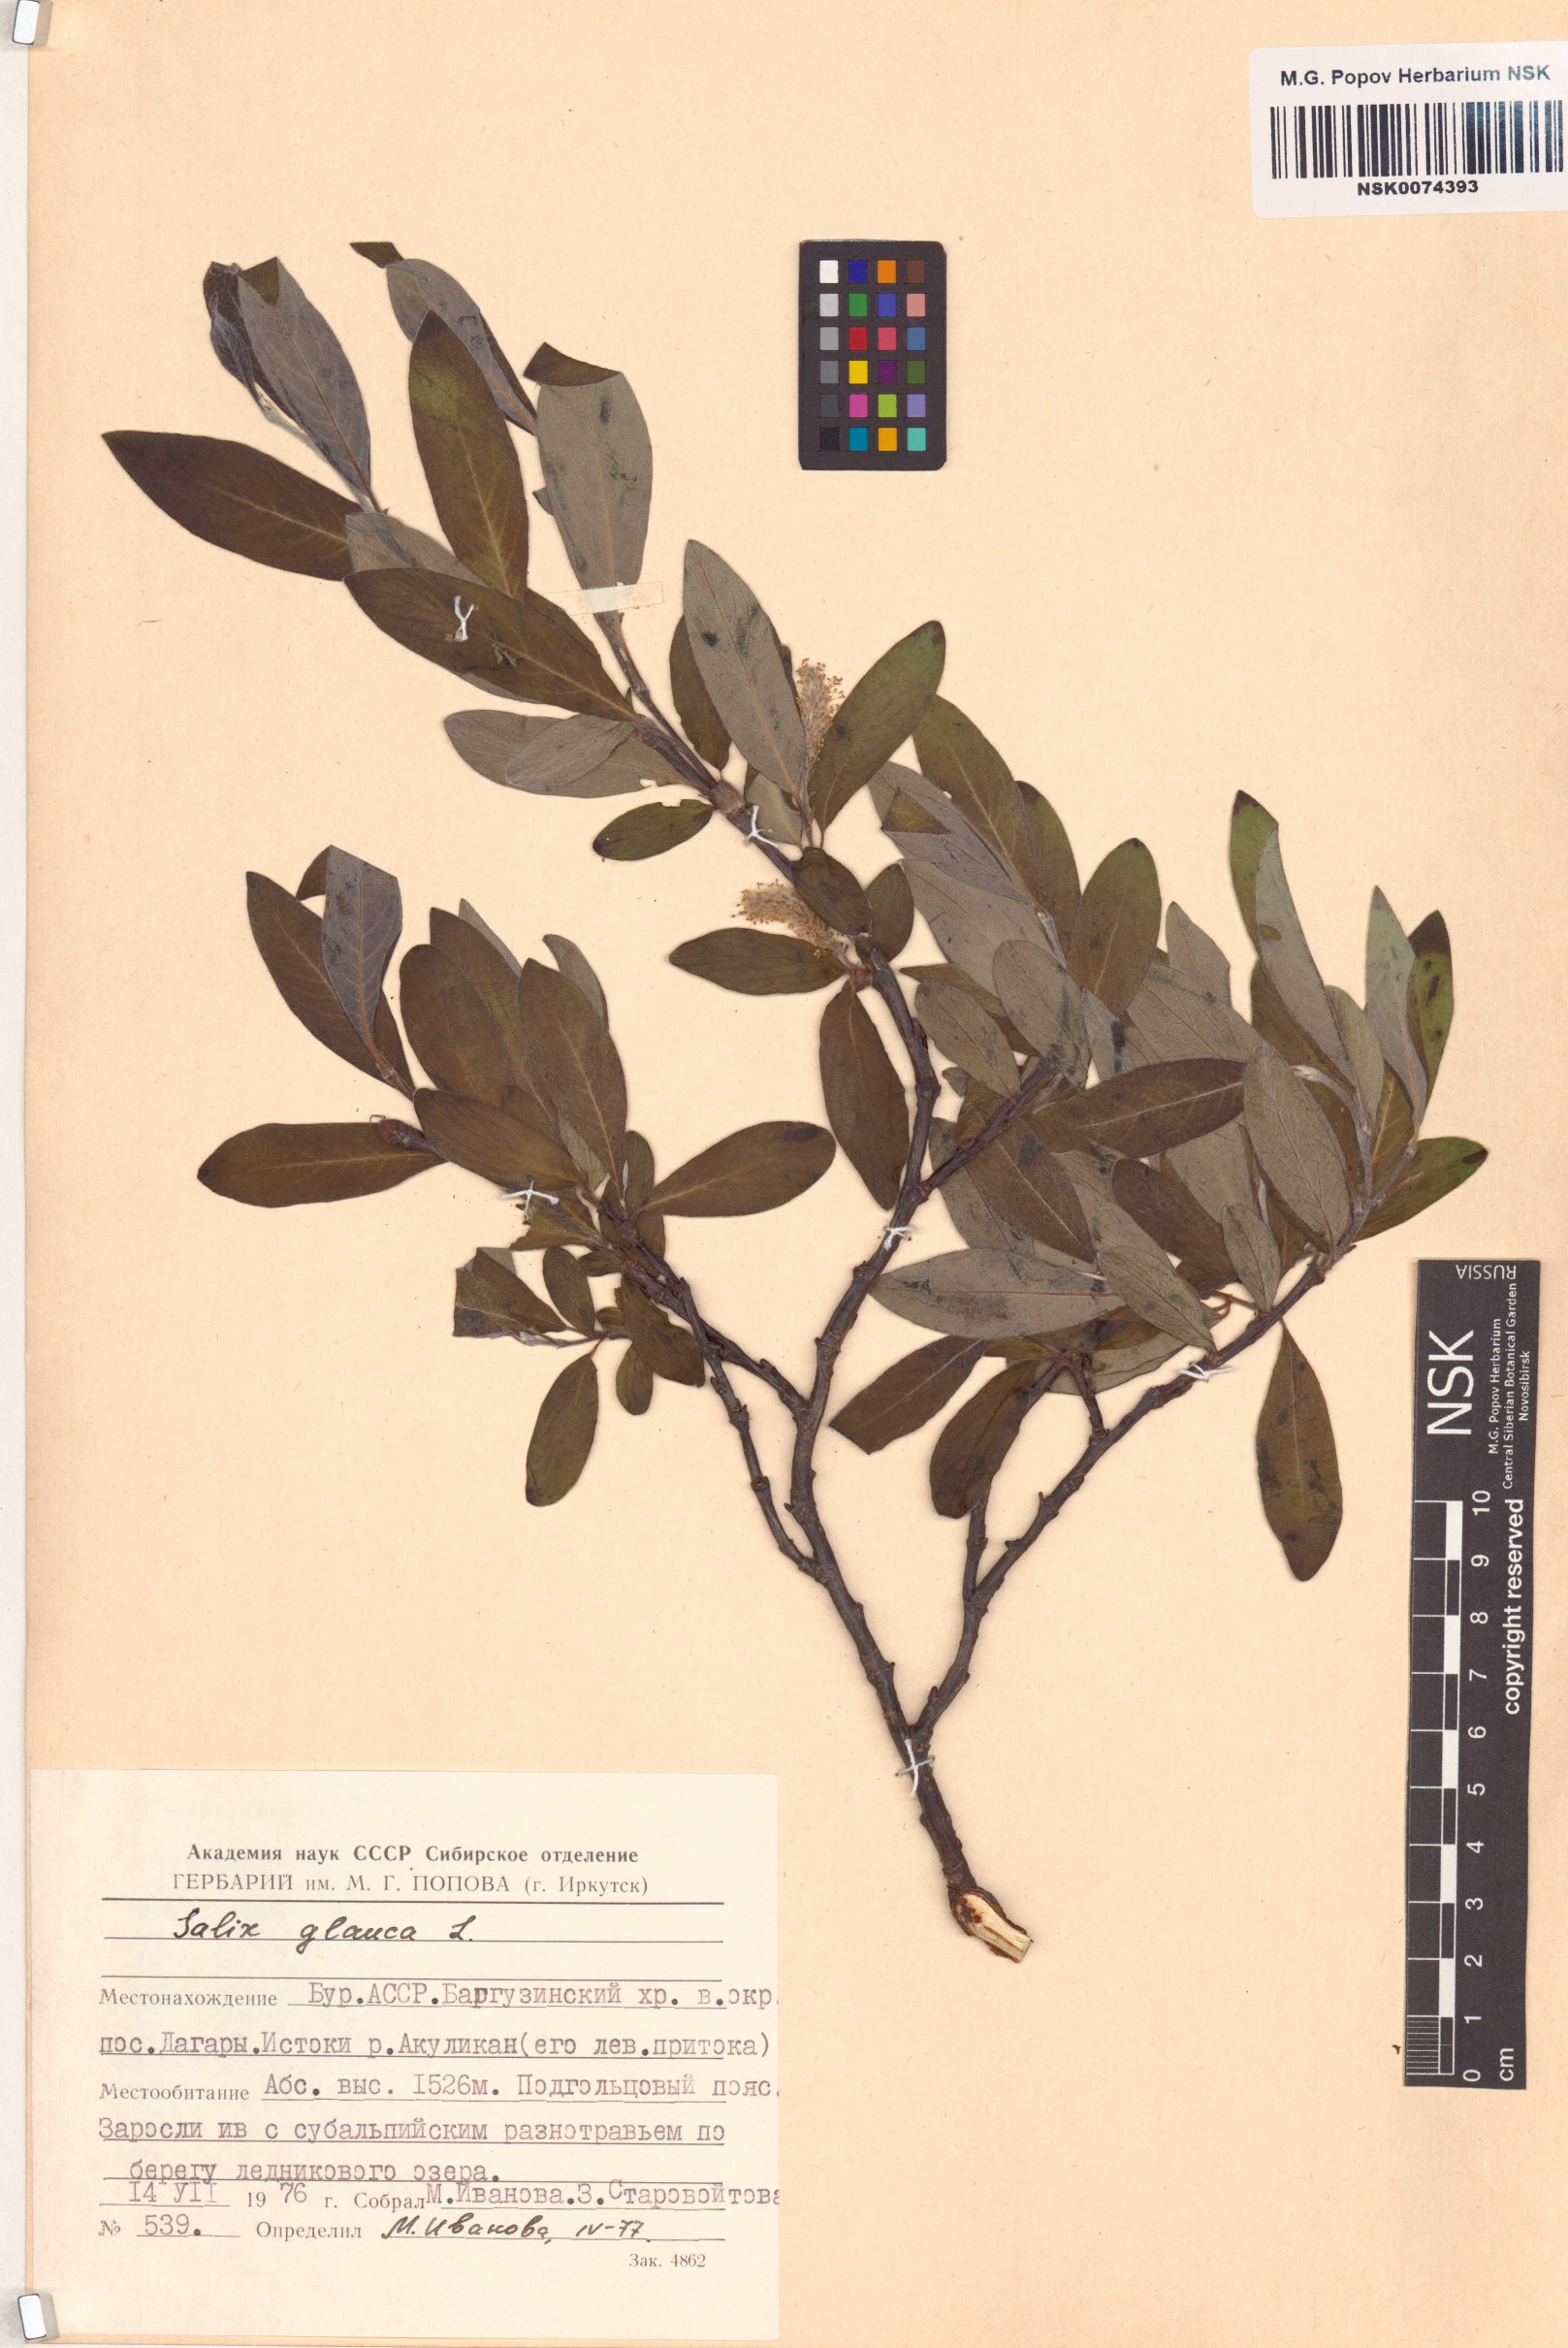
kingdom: Plantae
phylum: Tracheophyta
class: Magnoliopsida
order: Malpighiales
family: Salicaceae
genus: Salix
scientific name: Salix glauca
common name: Glaucous willow
